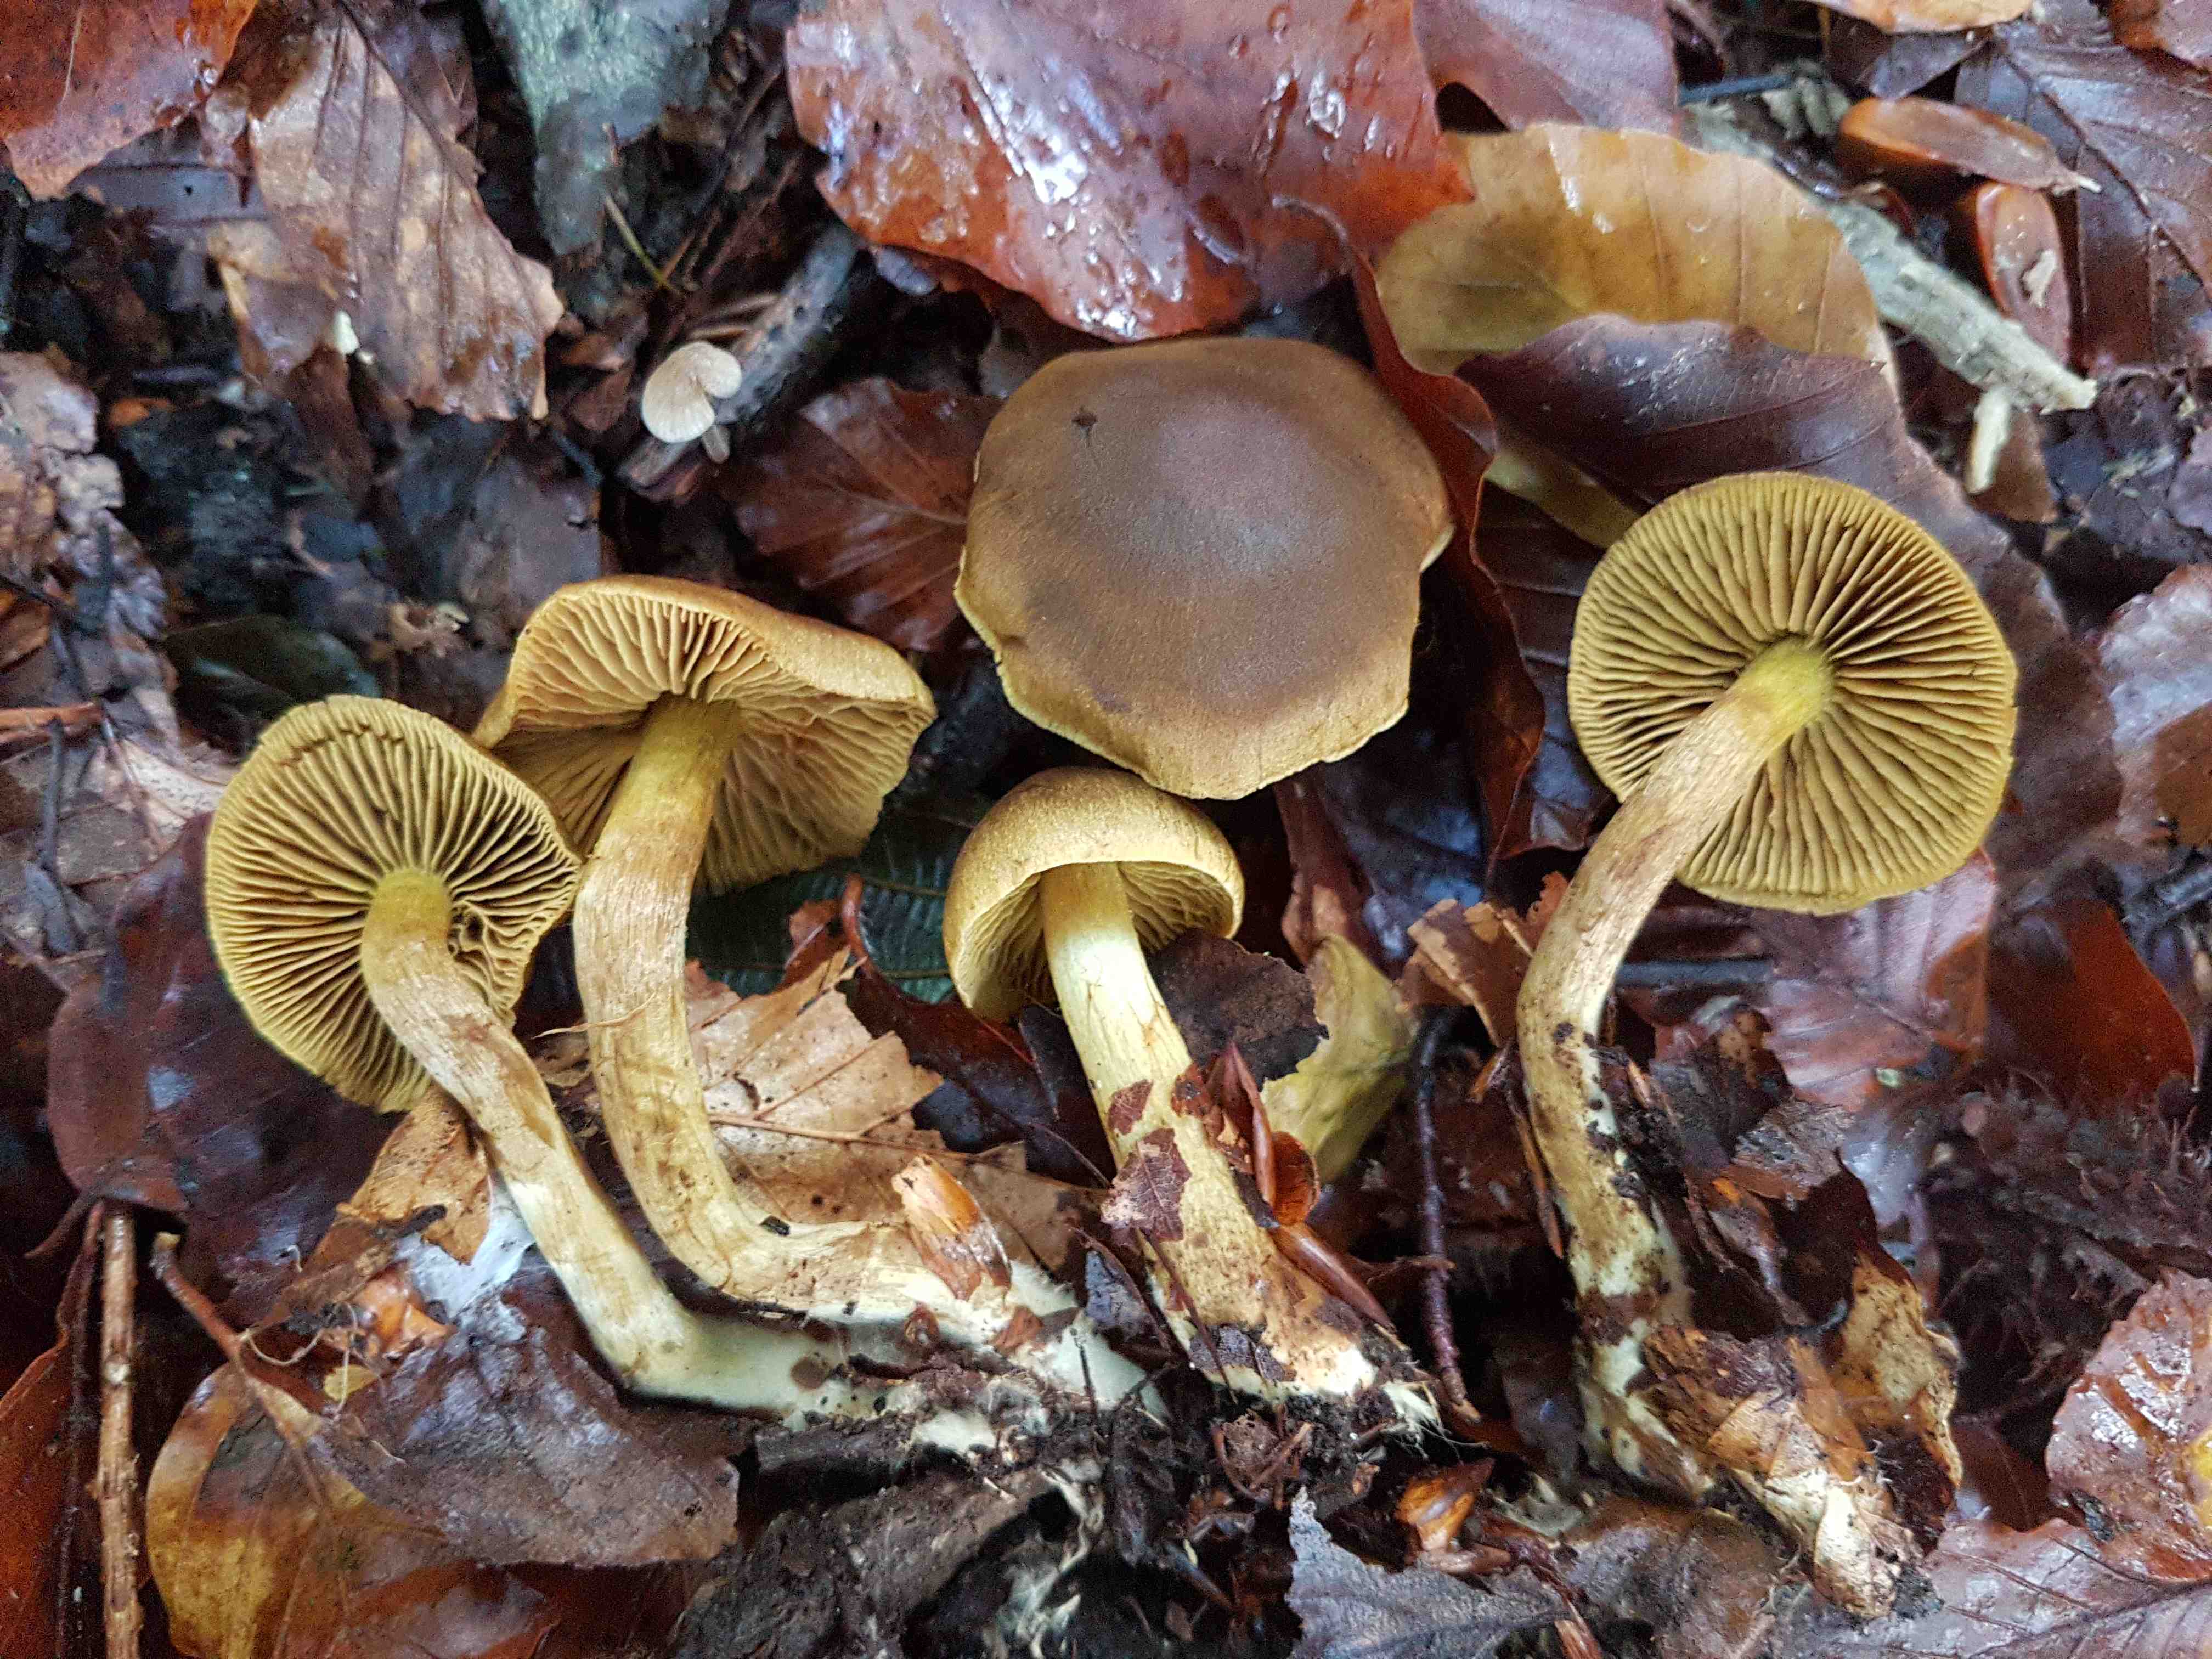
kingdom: Fungi
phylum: Basidiomycota
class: Agaricomycetes
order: Agaricales
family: Cortinariaceae
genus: Cortinarius
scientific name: Cortinarius olivaceofuscus
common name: olivenbrun slørhat
